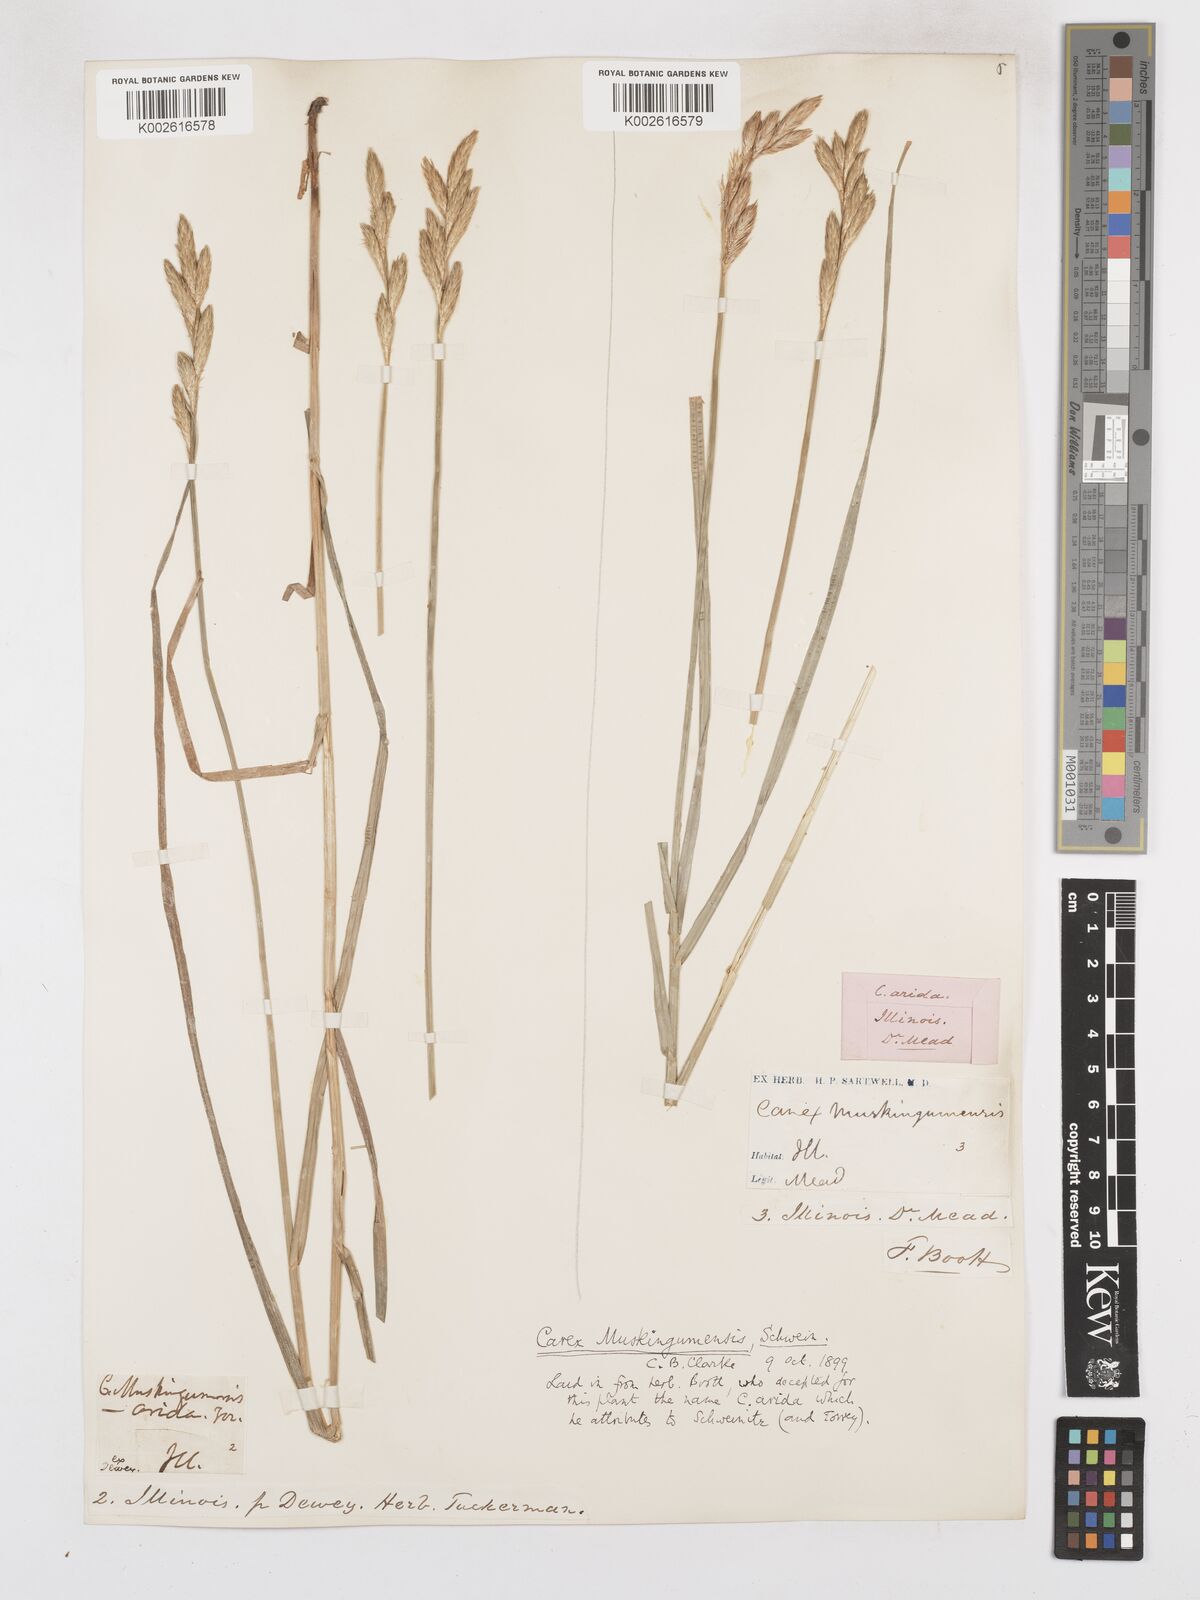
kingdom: Plantae
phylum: Tracheophyta
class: Liliopsida
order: Poales
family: Cyperaceae
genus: Carex
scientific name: Carex muskingumensis
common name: Muskingum sedge
